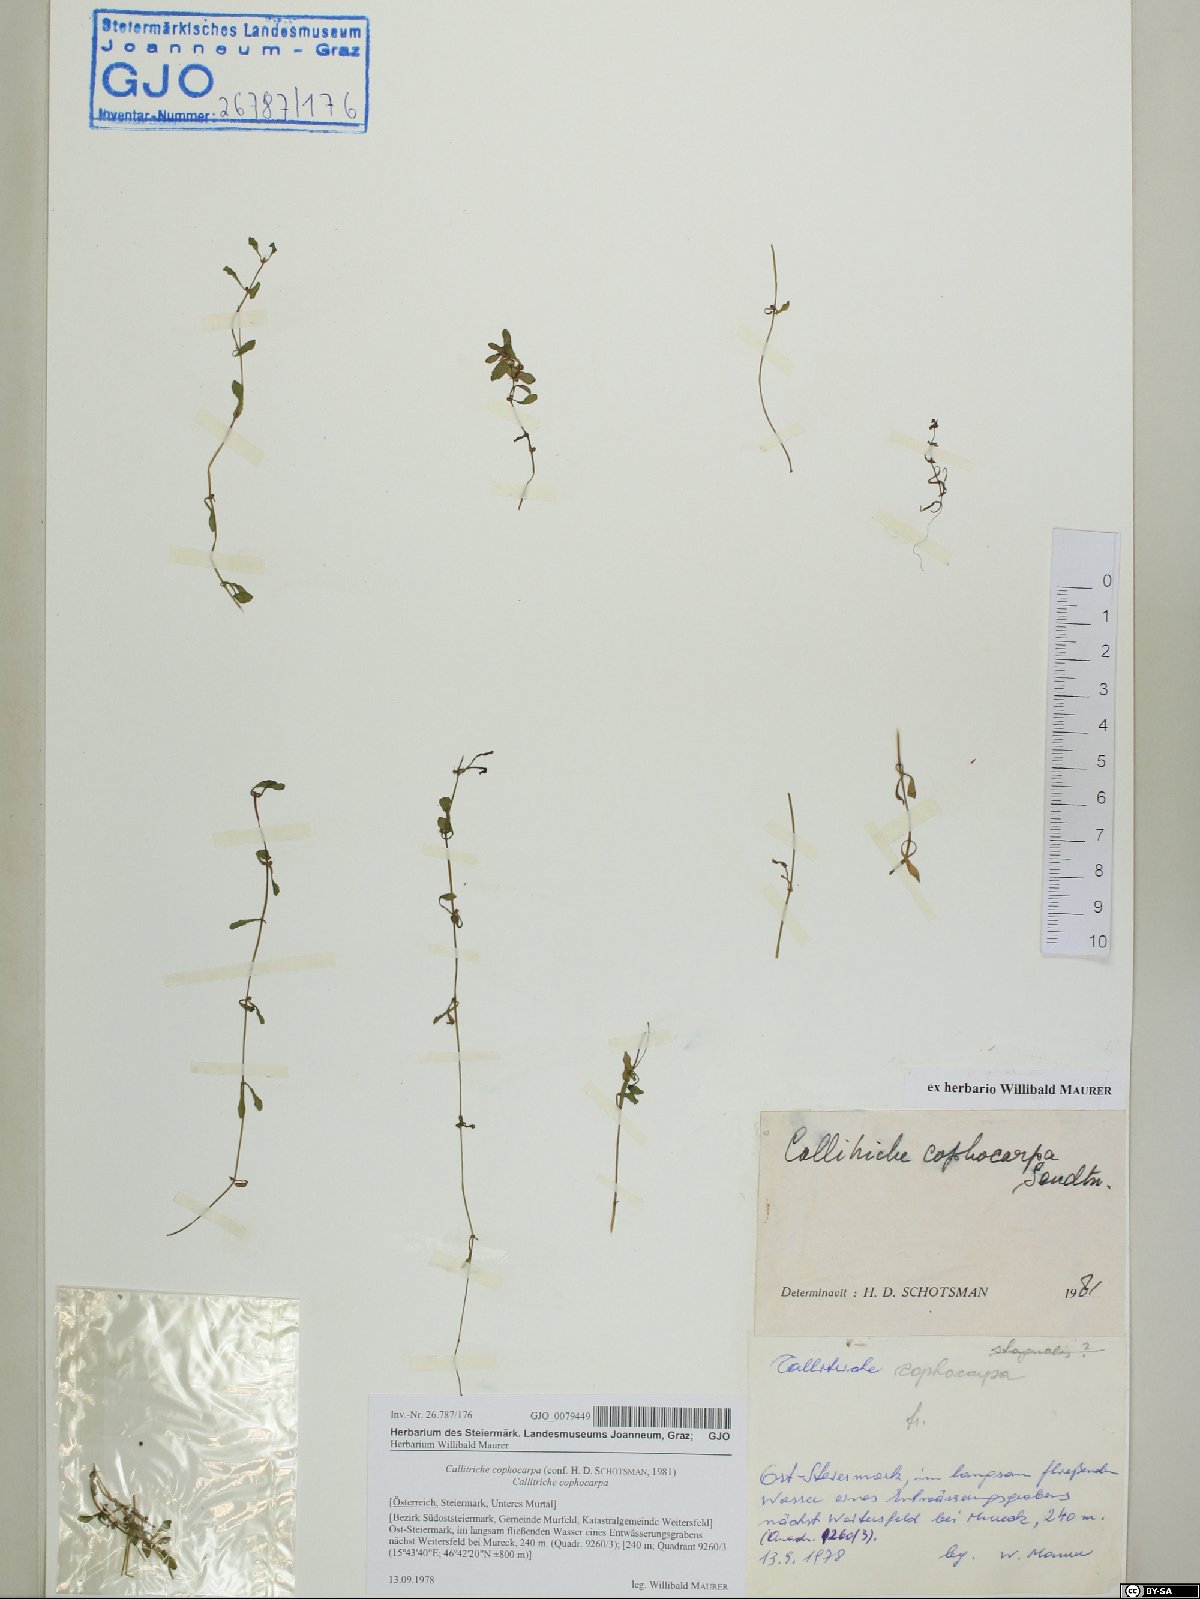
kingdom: Plantae
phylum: Tracheophyta
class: Magnoliopsida
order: Lamiales
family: Plantaginaceae
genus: Callitriche
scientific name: Callitriche cophocarpa
